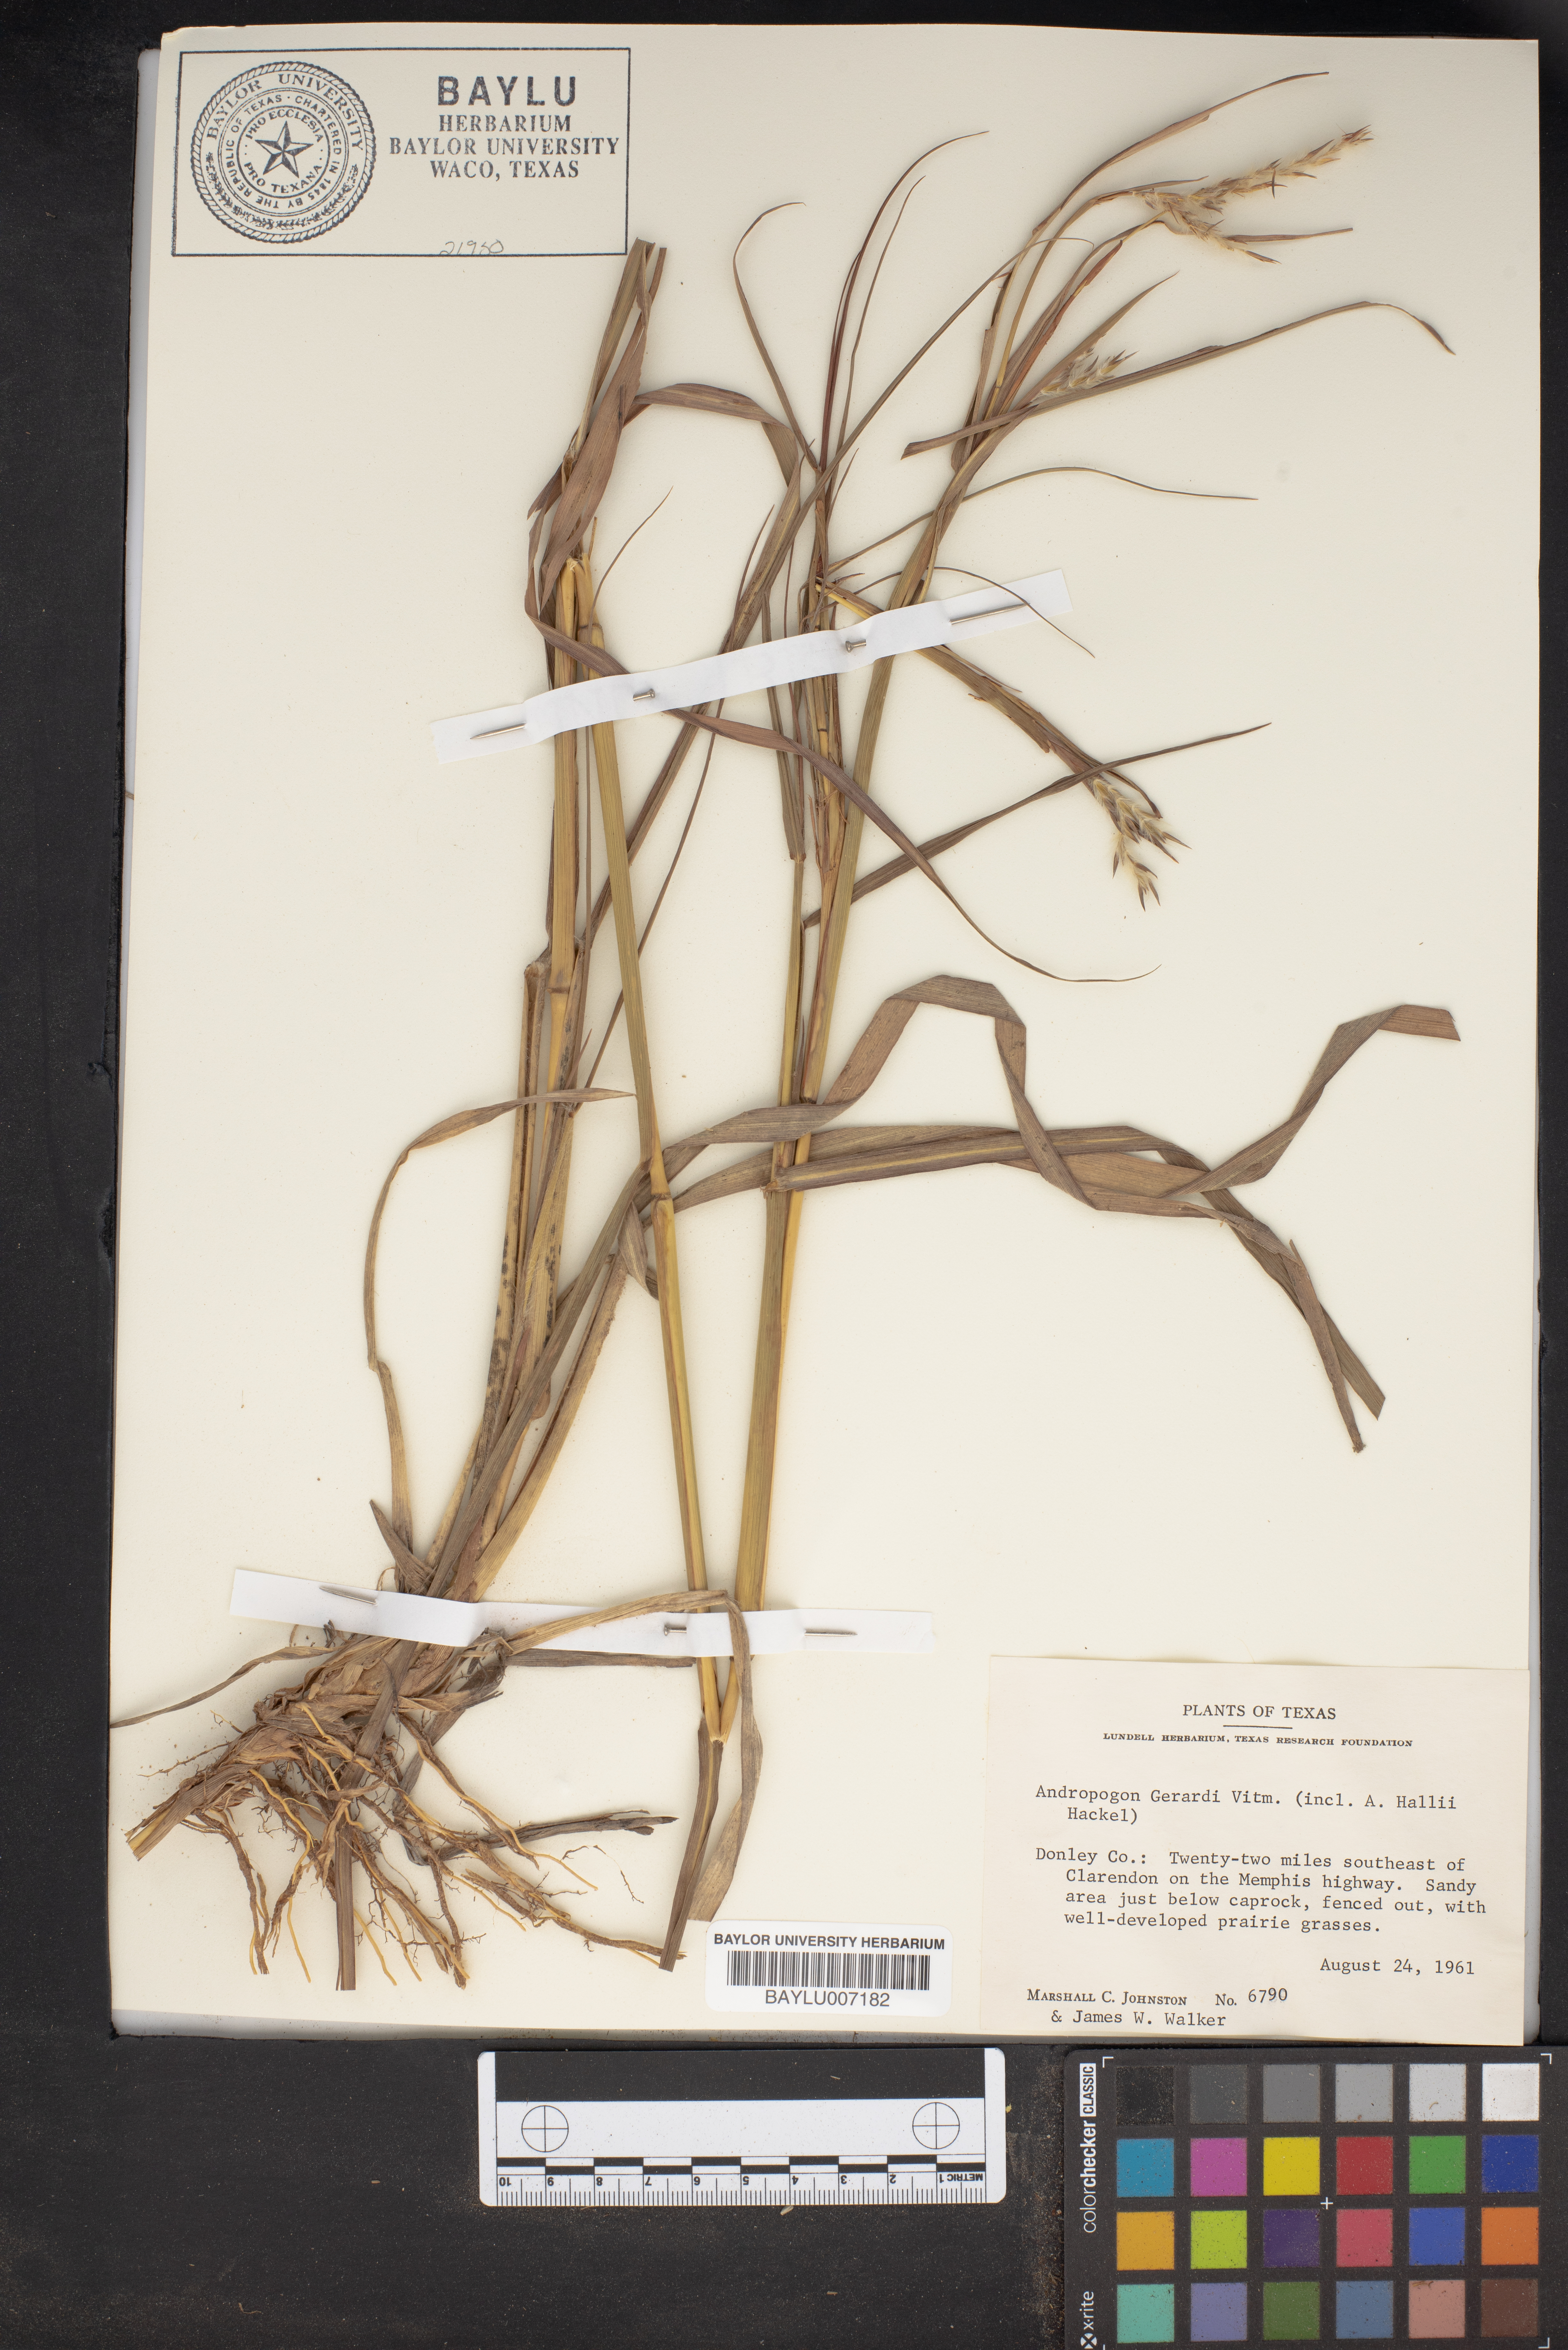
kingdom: Plantae
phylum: Tracheophyta
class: Liliopsida
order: Poales
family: Poaceae
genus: Andropogon
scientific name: Andropogon gerardi
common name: Big bluestem
